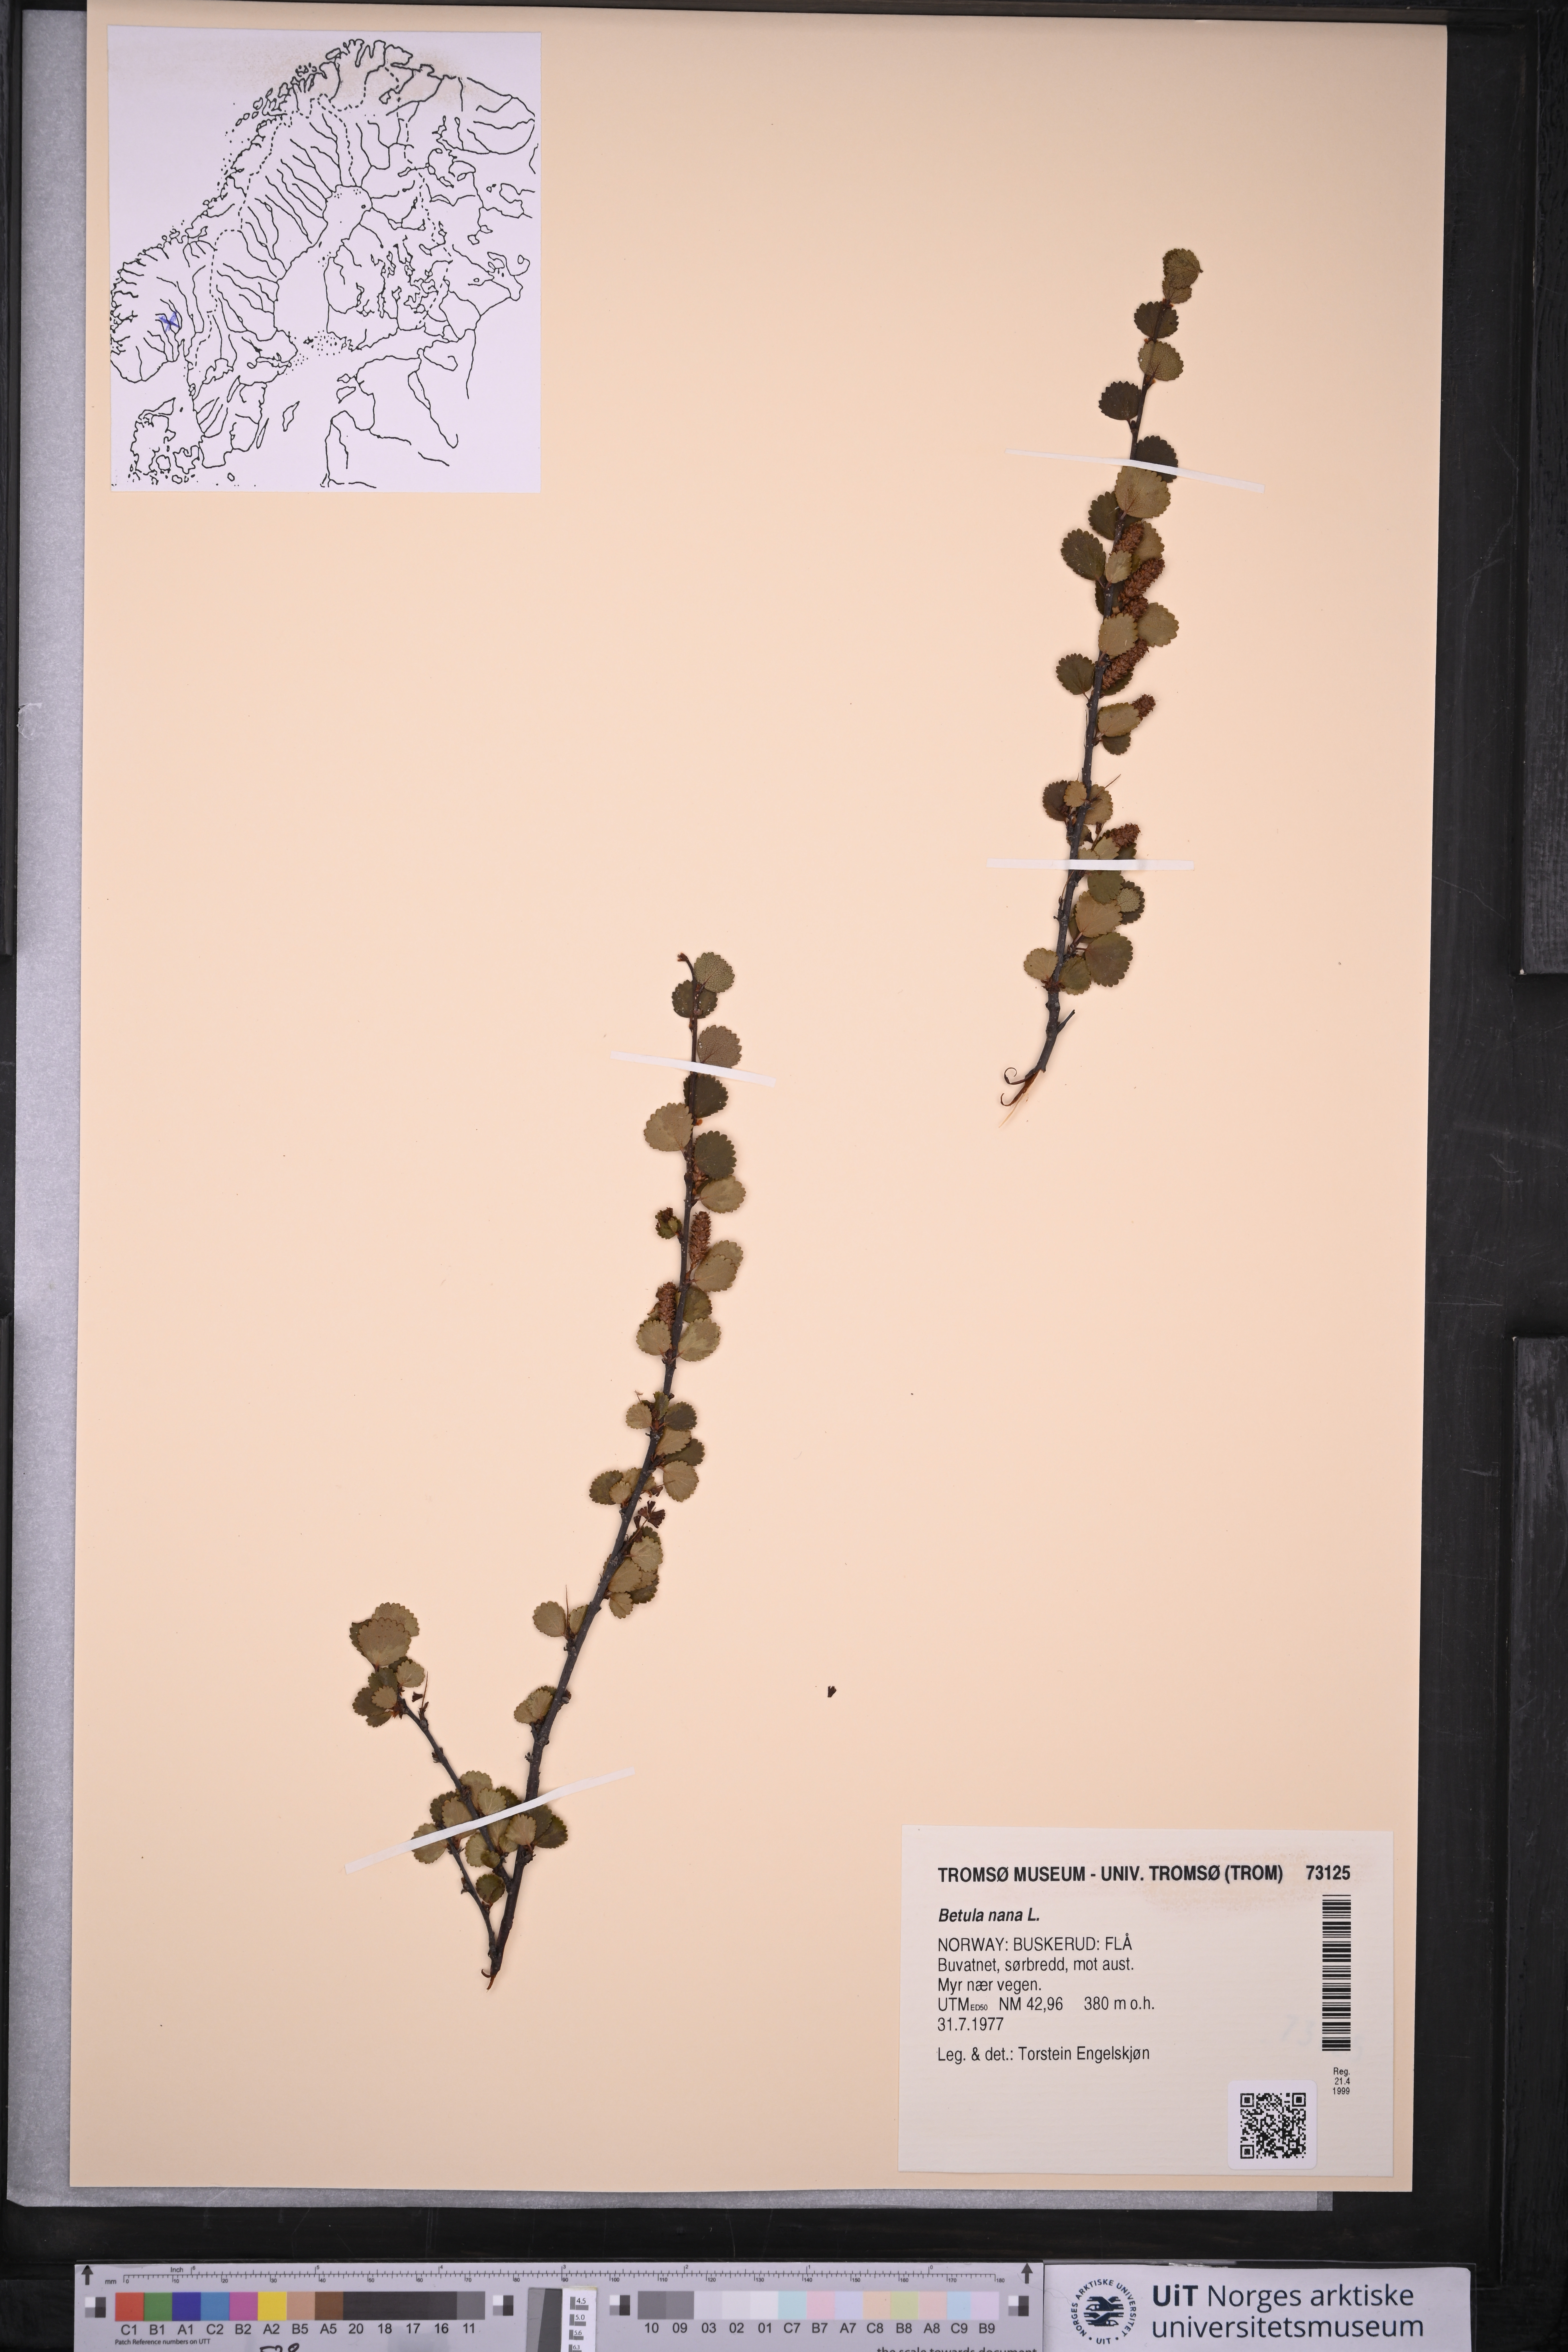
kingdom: Plantae
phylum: Tracheophyta
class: Magnoliopsida
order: Fagales
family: Betulaceae
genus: Betula
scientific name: Betula nana
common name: Arctic dwarf birch
